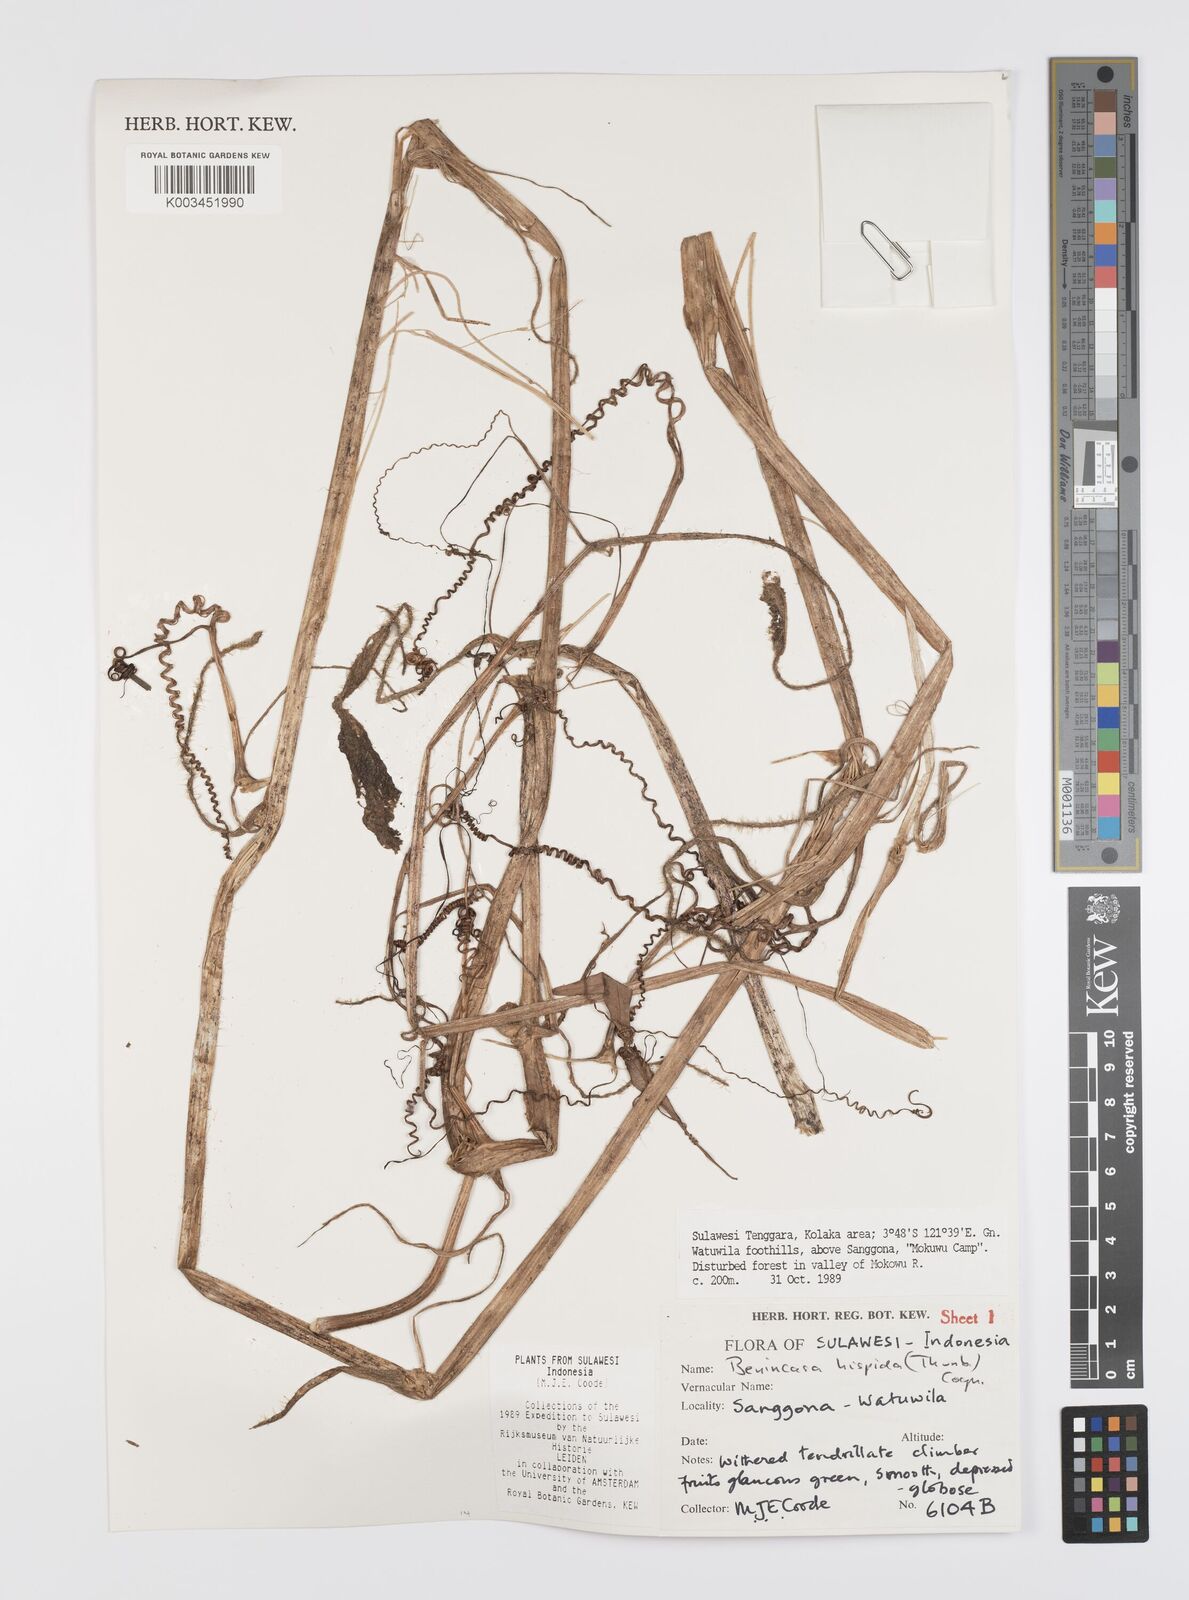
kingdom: Plantae
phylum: Tracheophyta
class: Magnoliopsida
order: Cucurbitales
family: Cucurbitaceae
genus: Benincasa
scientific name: Benincasa hispida
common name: Chinese-watermelon
